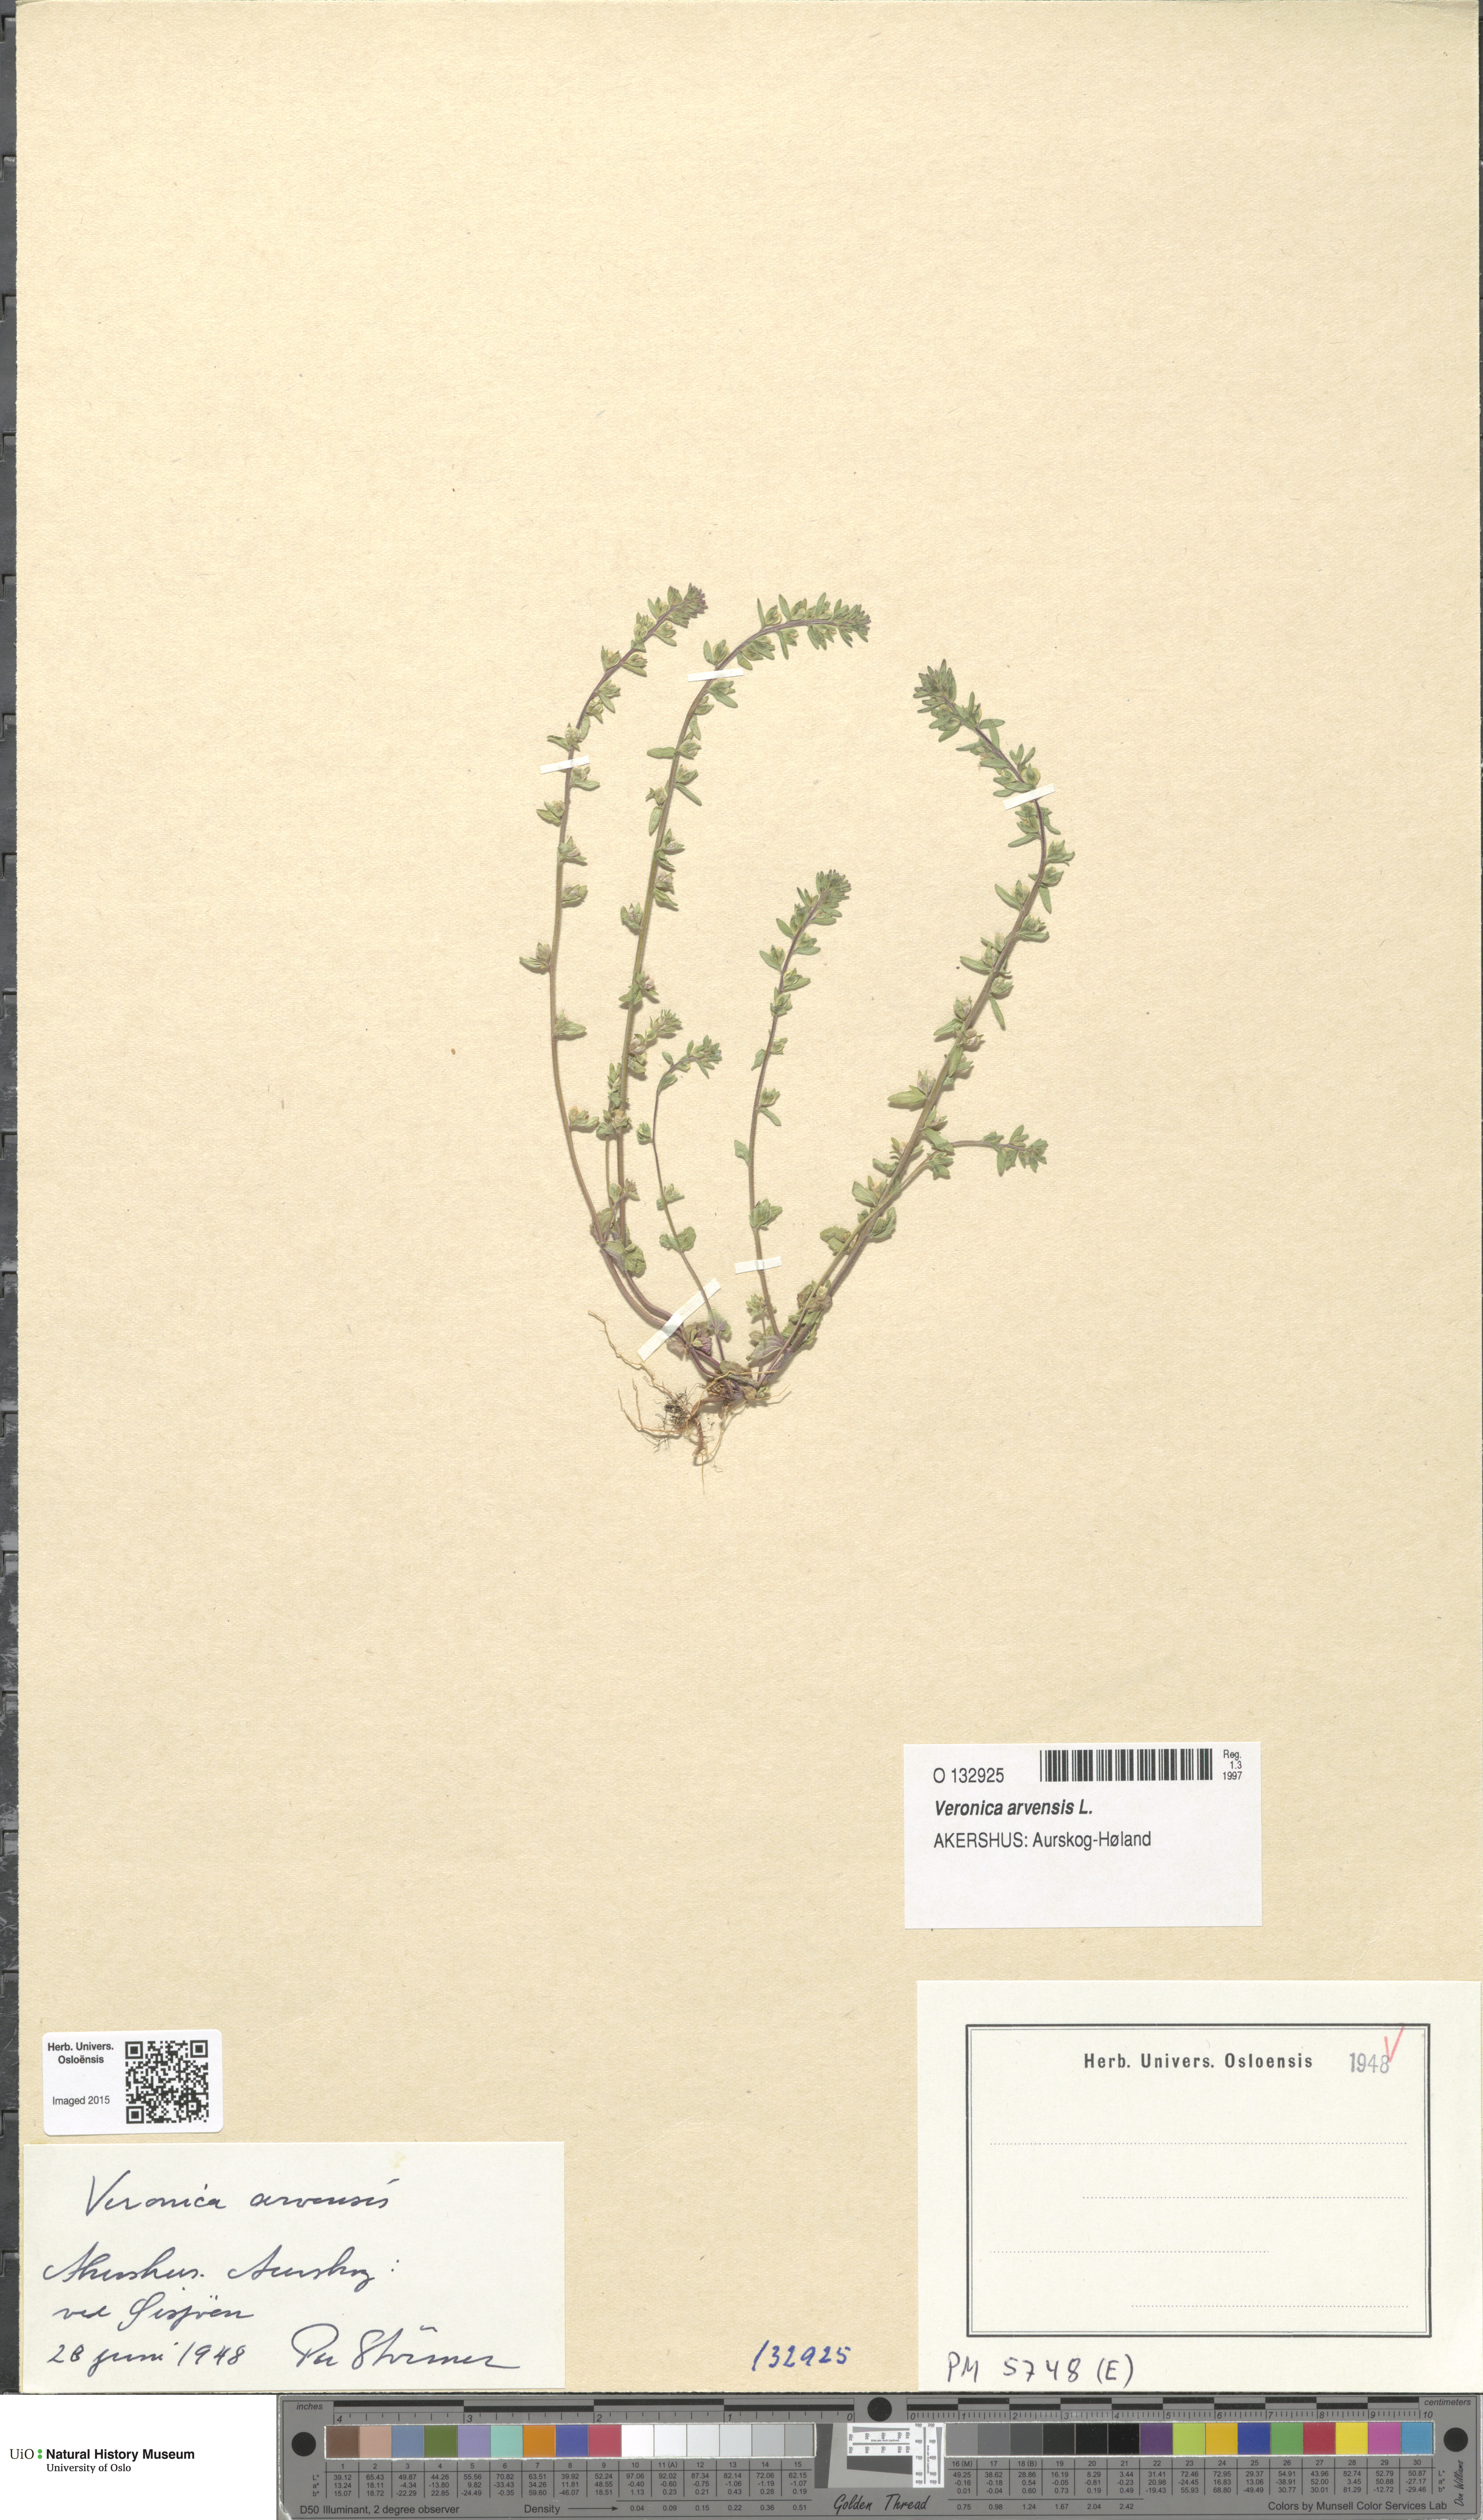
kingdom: Plantae
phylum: Tracheophyta
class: Magnoliopsida
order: Lamiales
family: Plantaginaceae
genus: Veronica
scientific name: Veronica arvensis
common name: Corn speedwell
